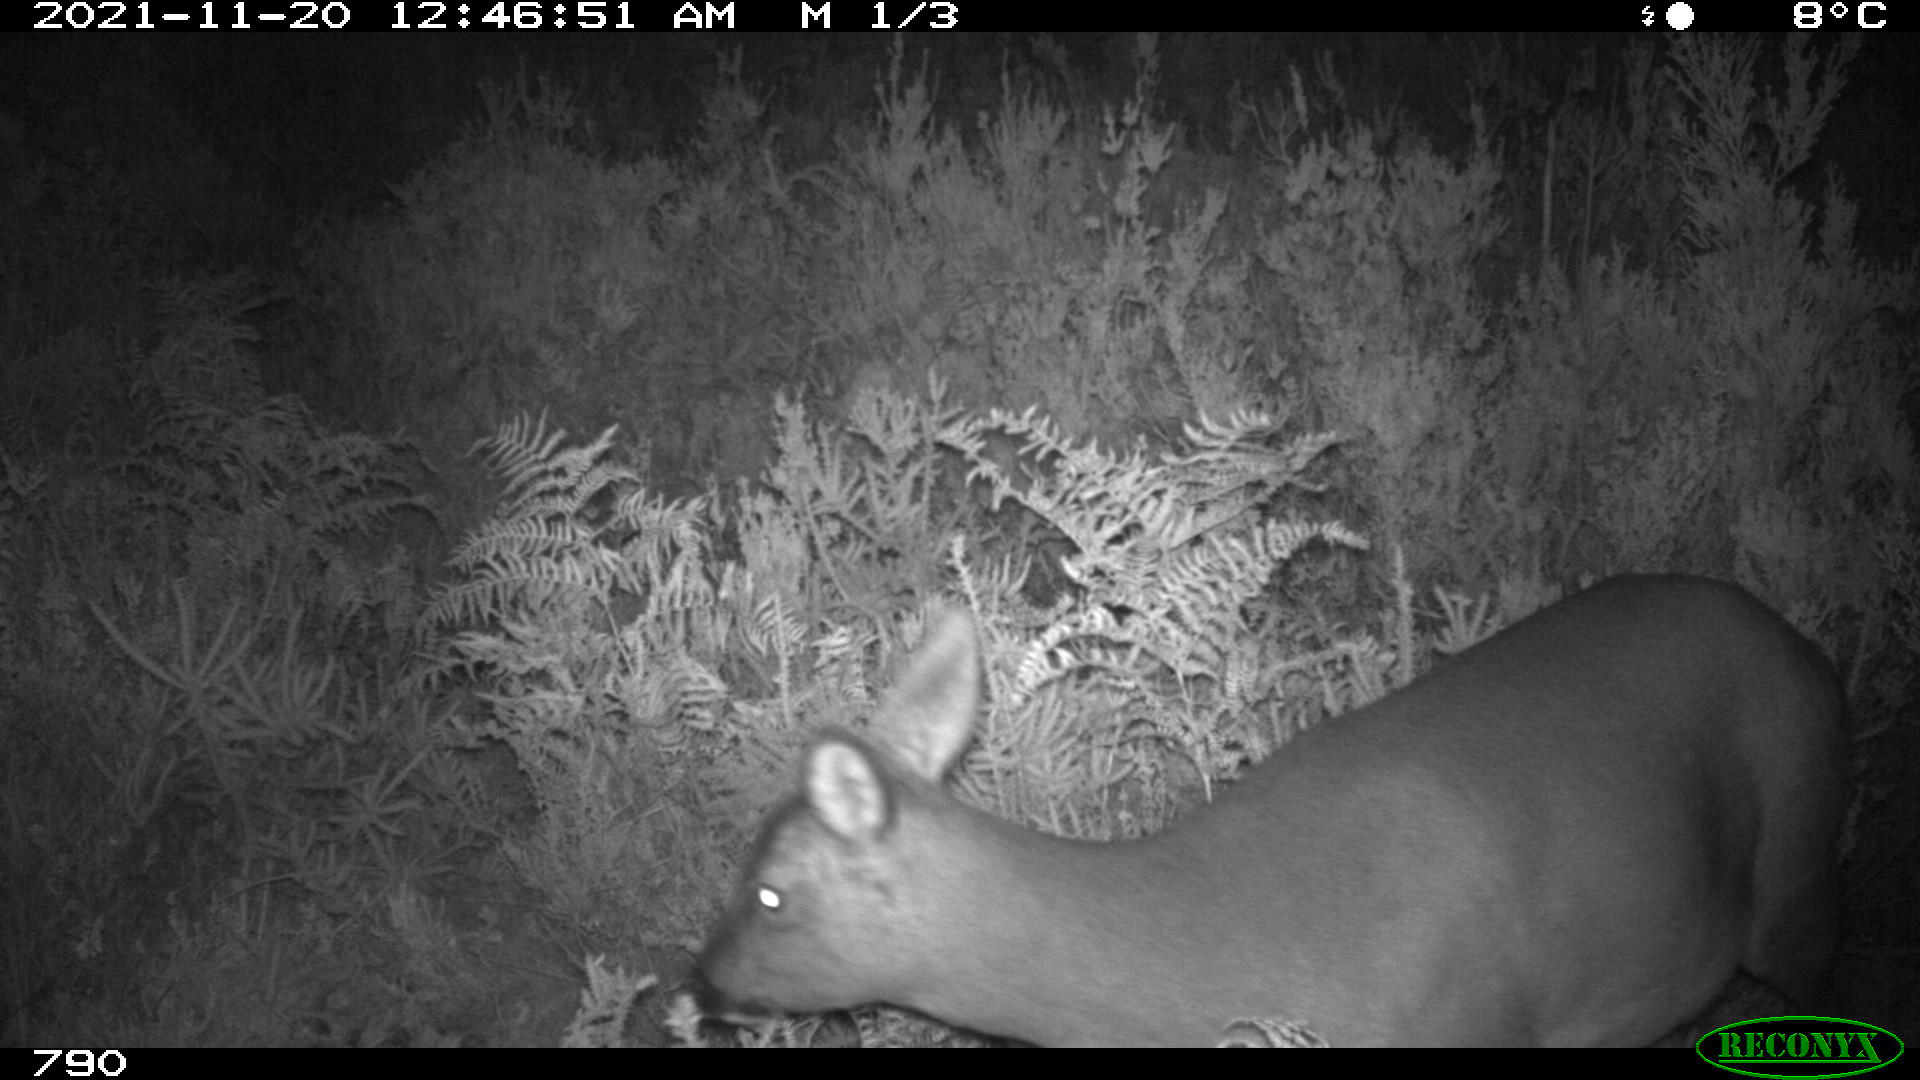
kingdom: Animalia
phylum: Chordata
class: Mammalia
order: Artiodactyla
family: Cervidae
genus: Capreolus
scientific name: Capreolus capreolus
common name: Western roe deer
